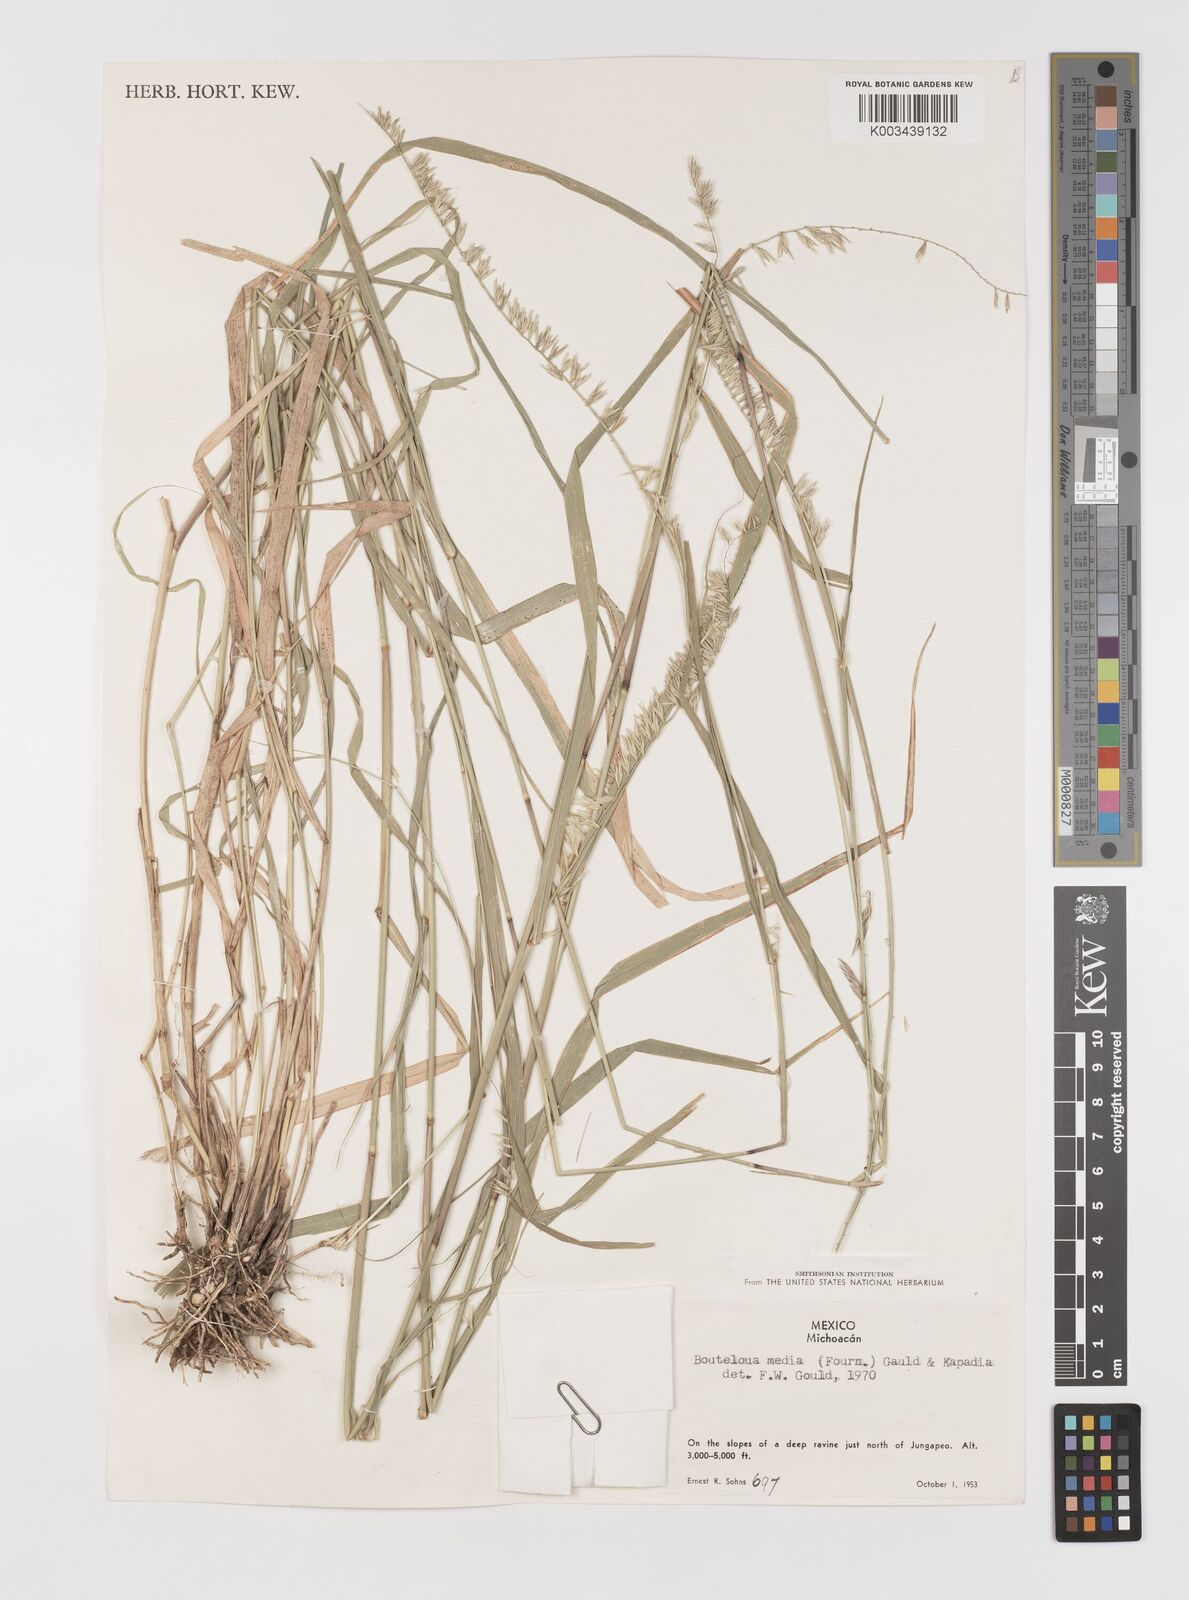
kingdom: Plantae
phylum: Tracheophyta
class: Liliopsida
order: Poales
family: Poaceae
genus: Bouteloua
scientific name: Bouteloua media
